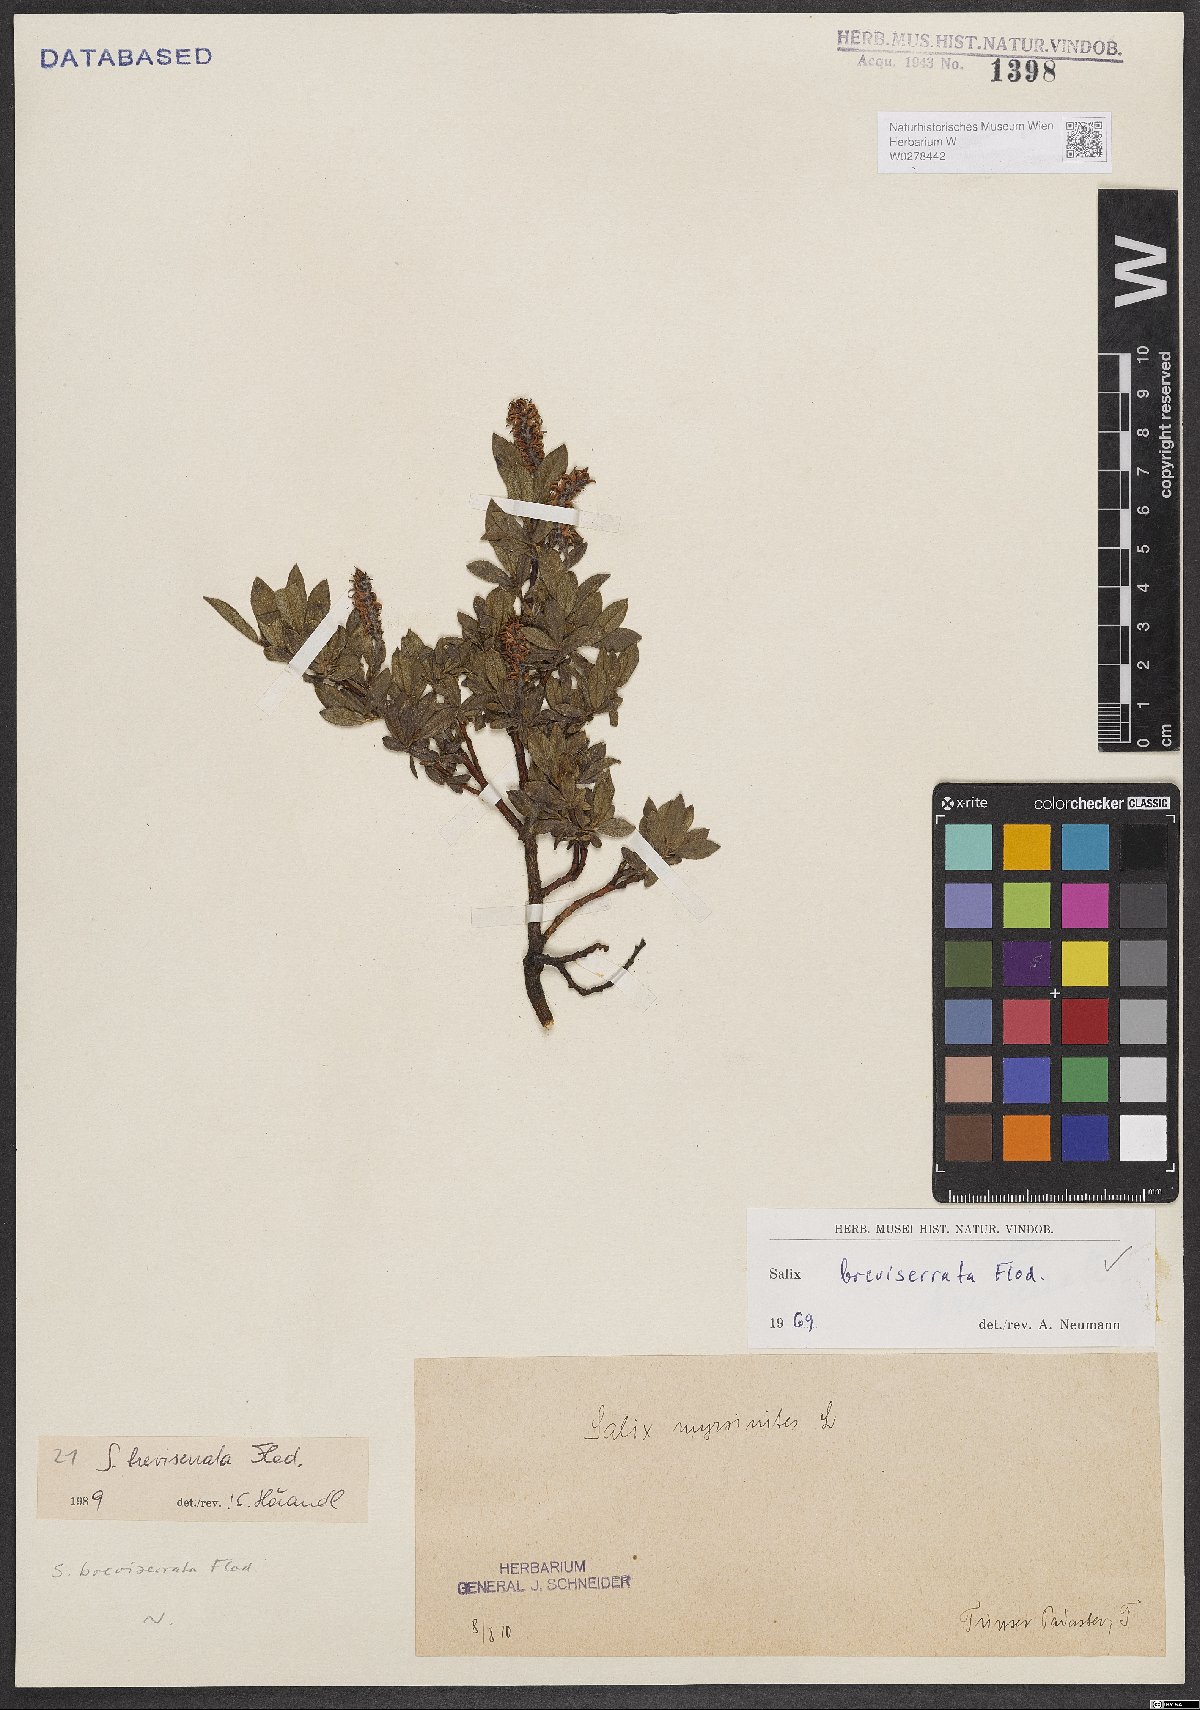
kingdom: Plantae
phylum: Tracheophyta
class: Magnoliopsida
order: Malpighiales
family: Salicaceae
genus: Salix
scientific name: Salix breviserrata
